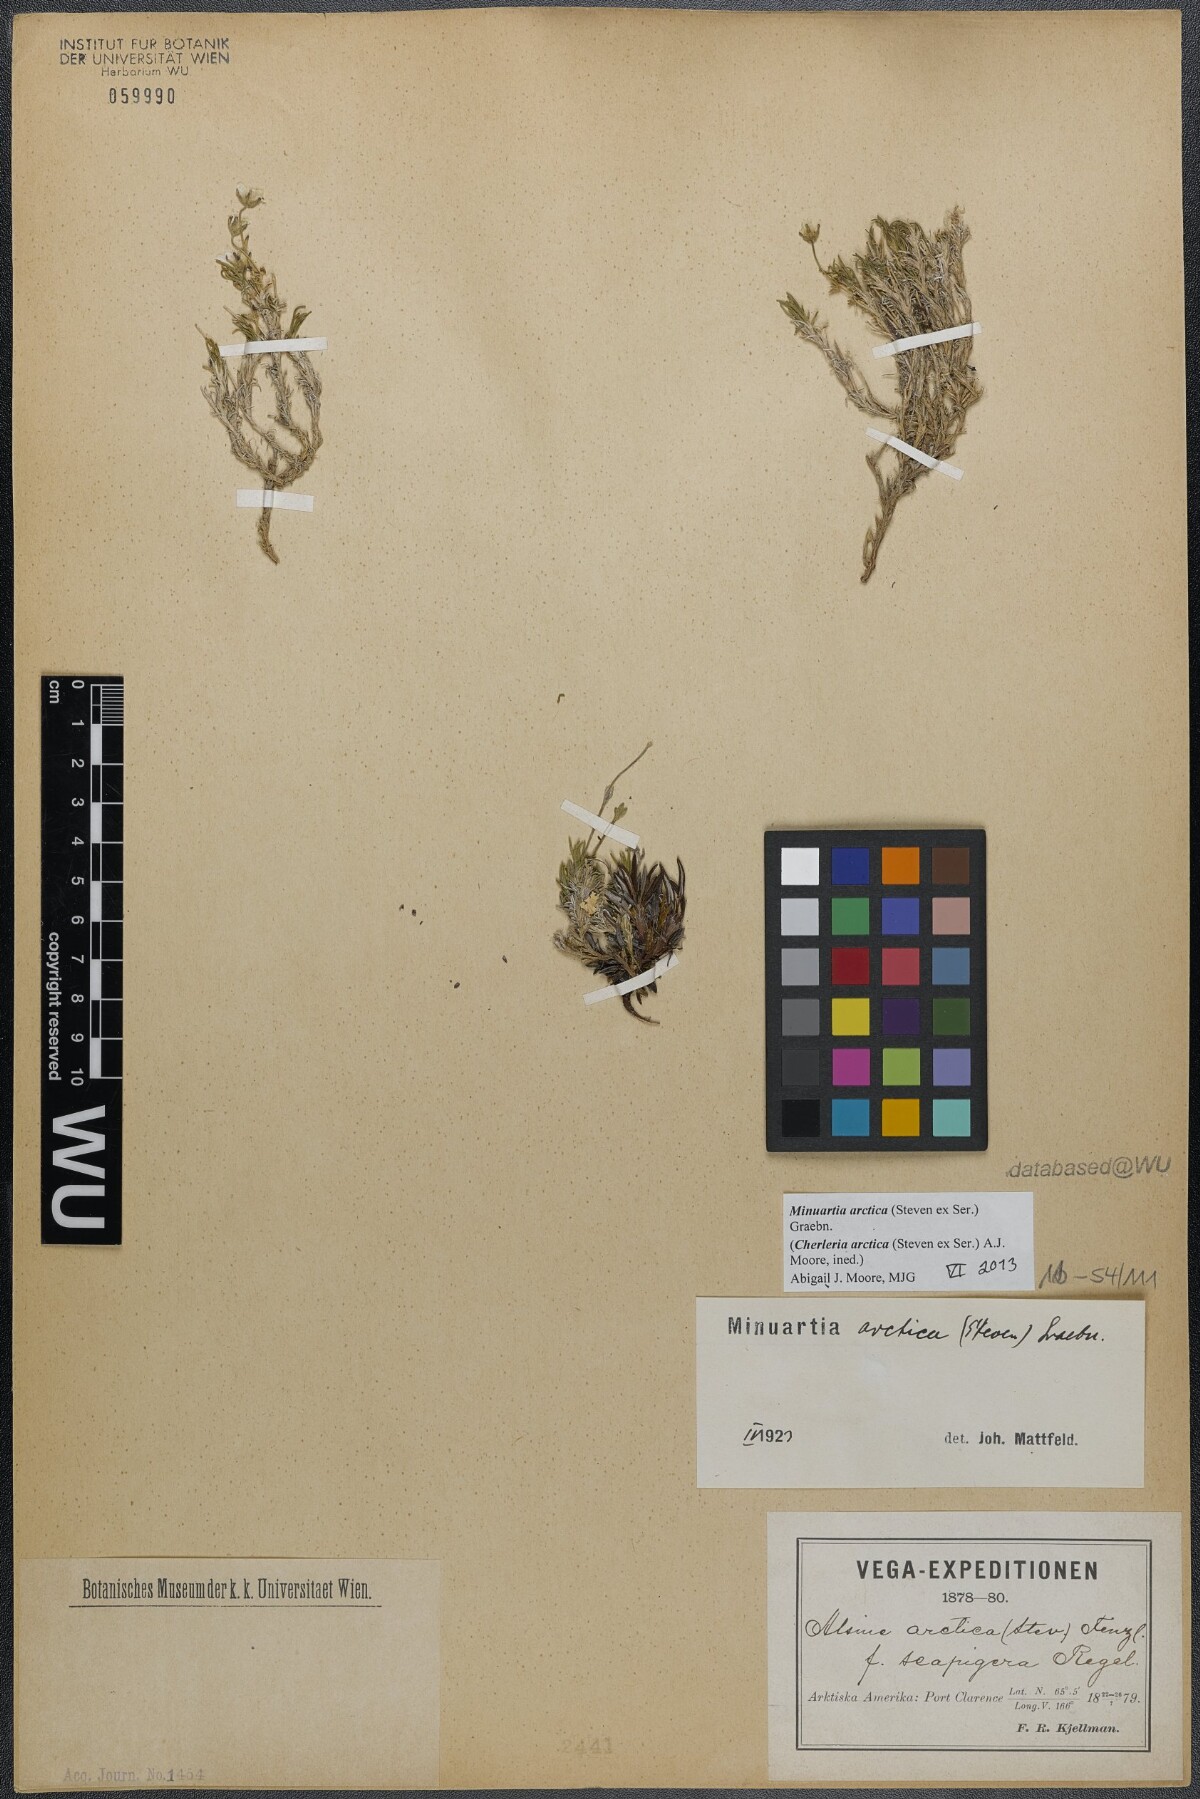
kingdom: Plantae
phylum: Tracheophyta
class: Magnoliopsida
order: Caryophyllales
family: Caryophyllaceae
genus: Cherleria
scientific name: Cherleria arctica
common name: Arctic sandwort
